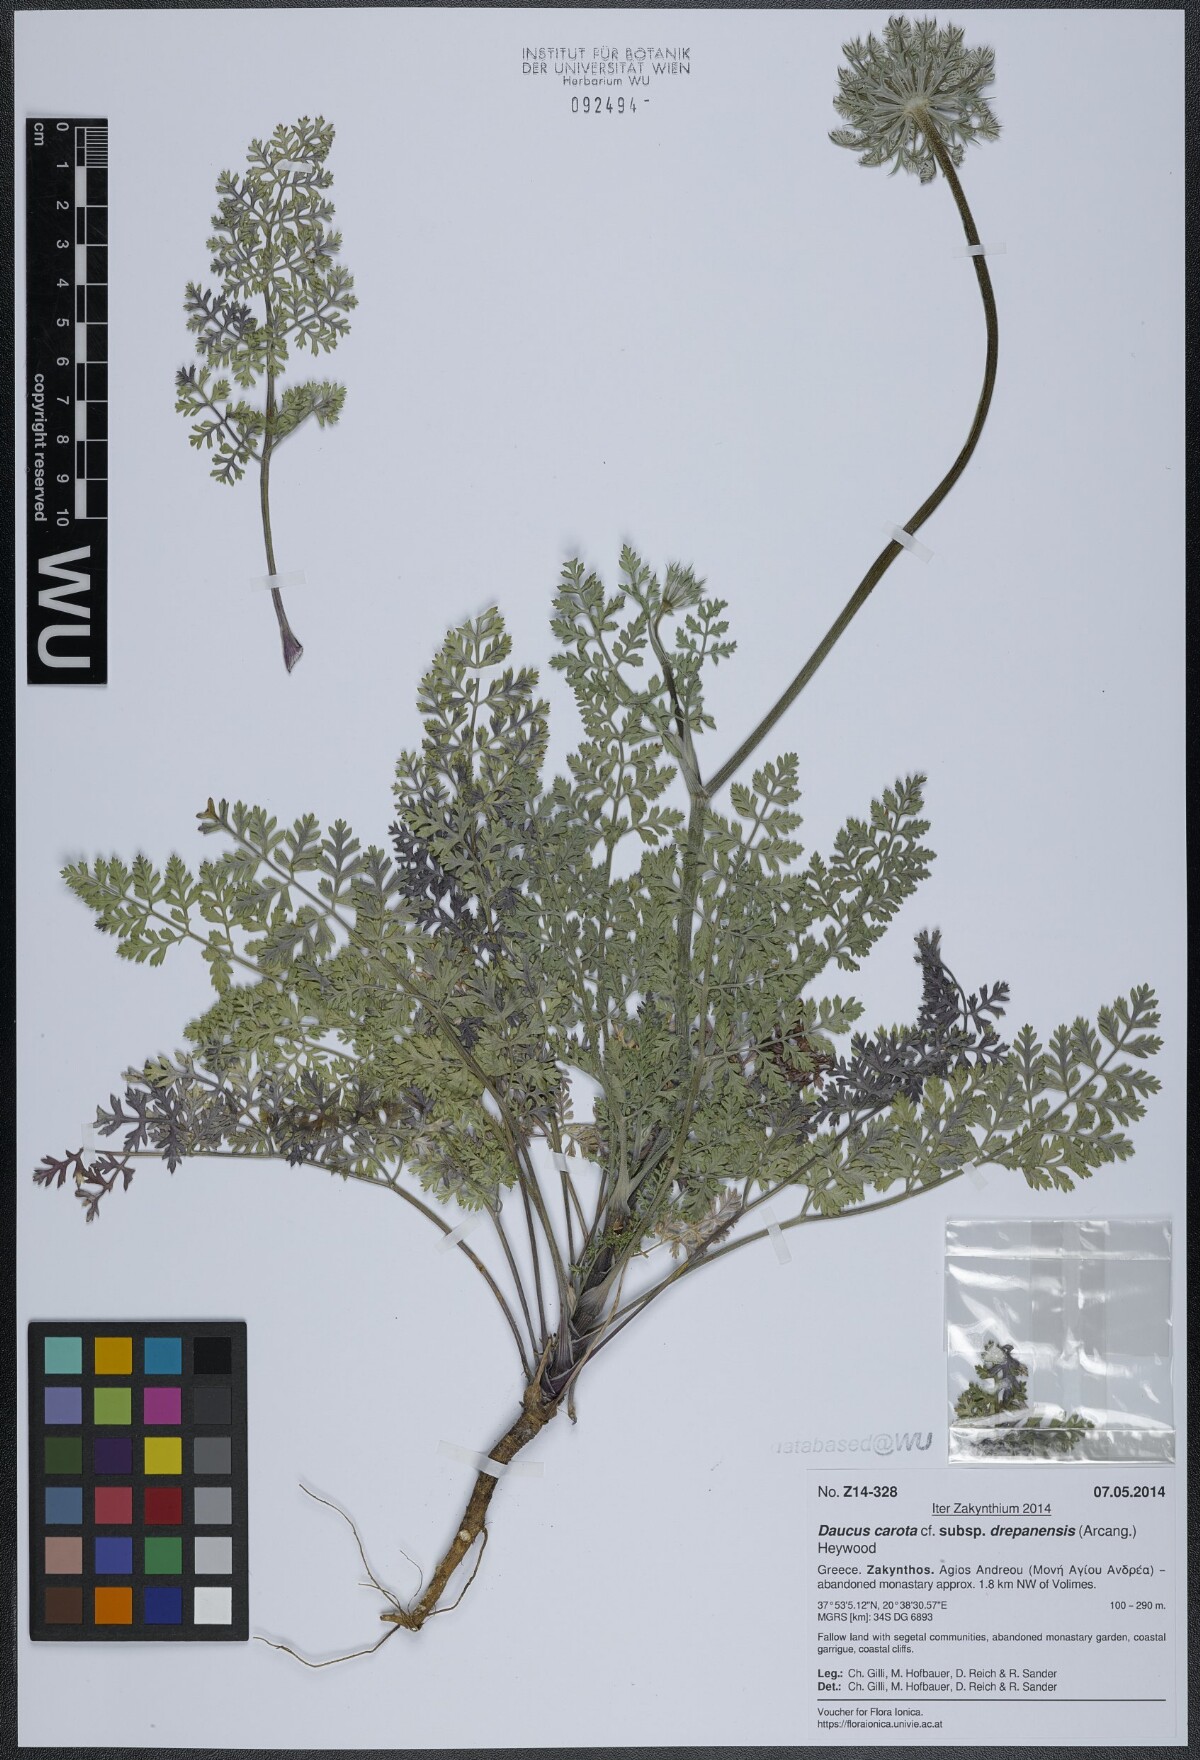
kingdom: Plantae
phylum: Tracheophyta
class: Magnoliopsida
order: Apiales
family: Apiaceae
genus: Daucus
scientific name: Daucus carota
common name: Wild carrot
